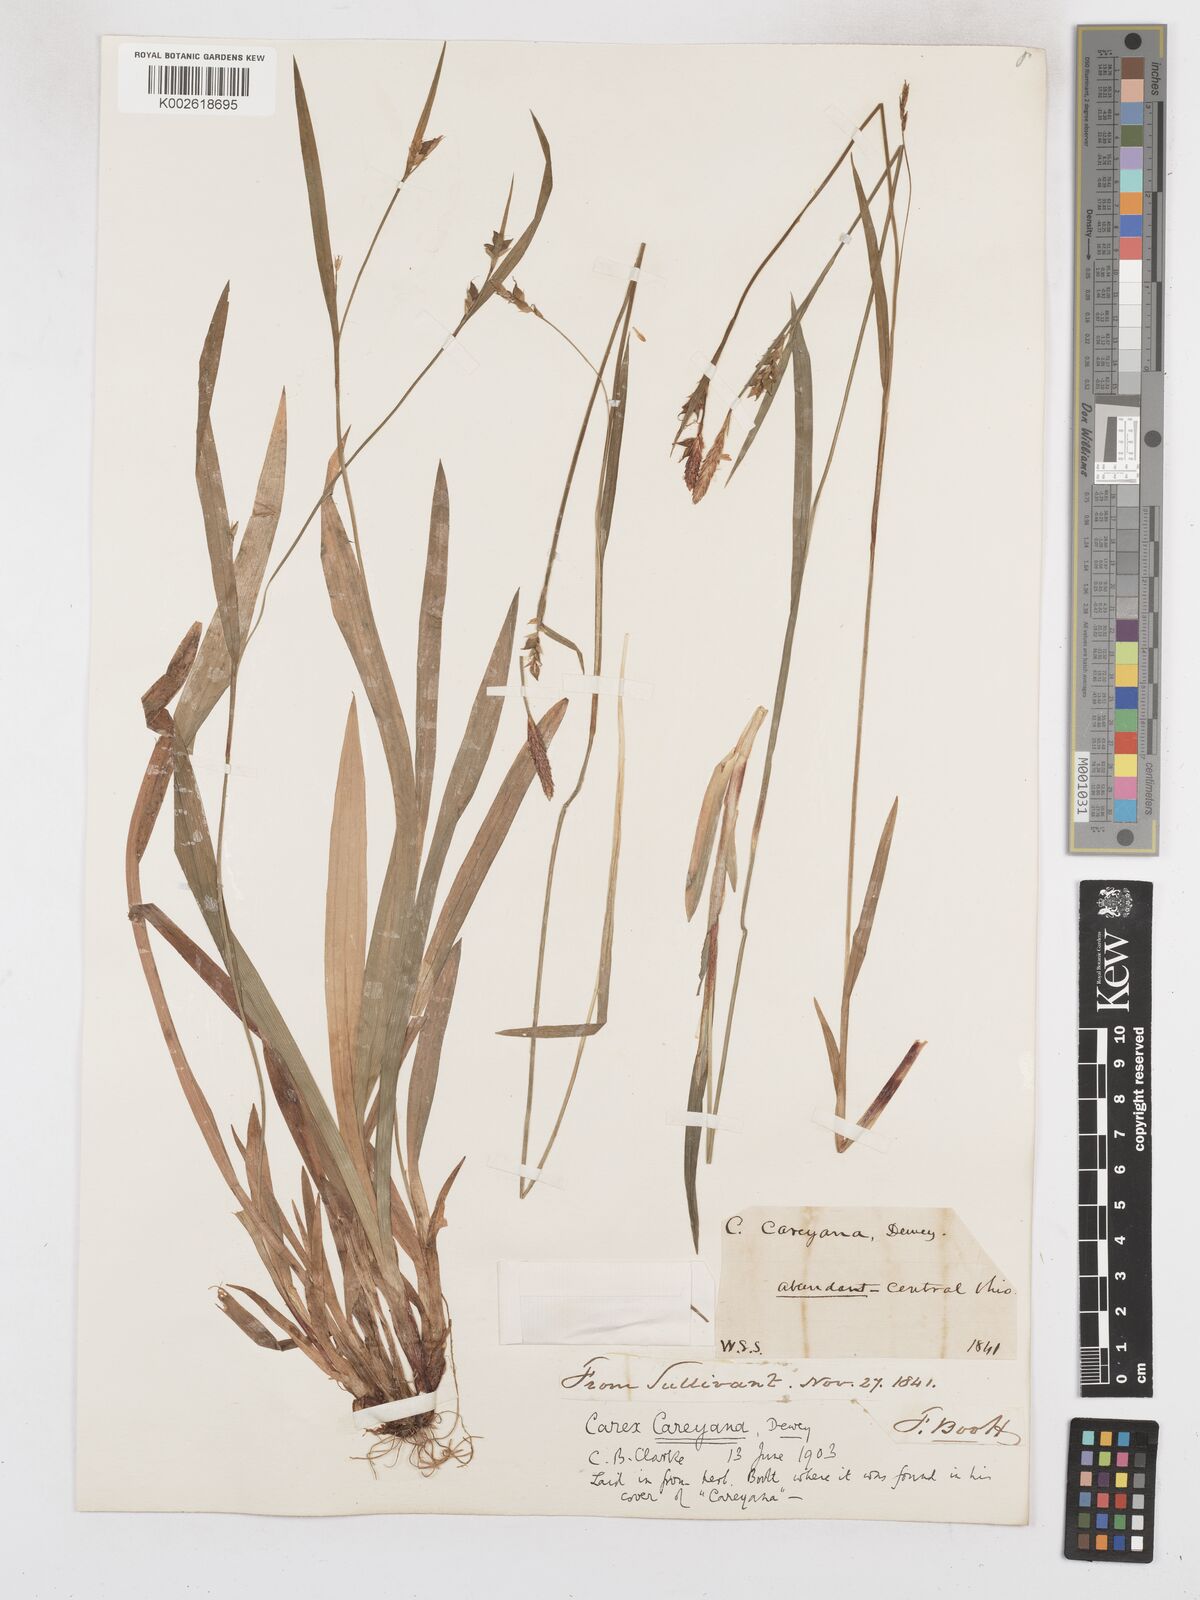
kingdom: Plantae
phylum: Tracheophyta
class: Liliopsida
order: Poales
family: Cyperaceae
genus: Carex
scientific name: Carex careyana
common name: Carey's sedge
